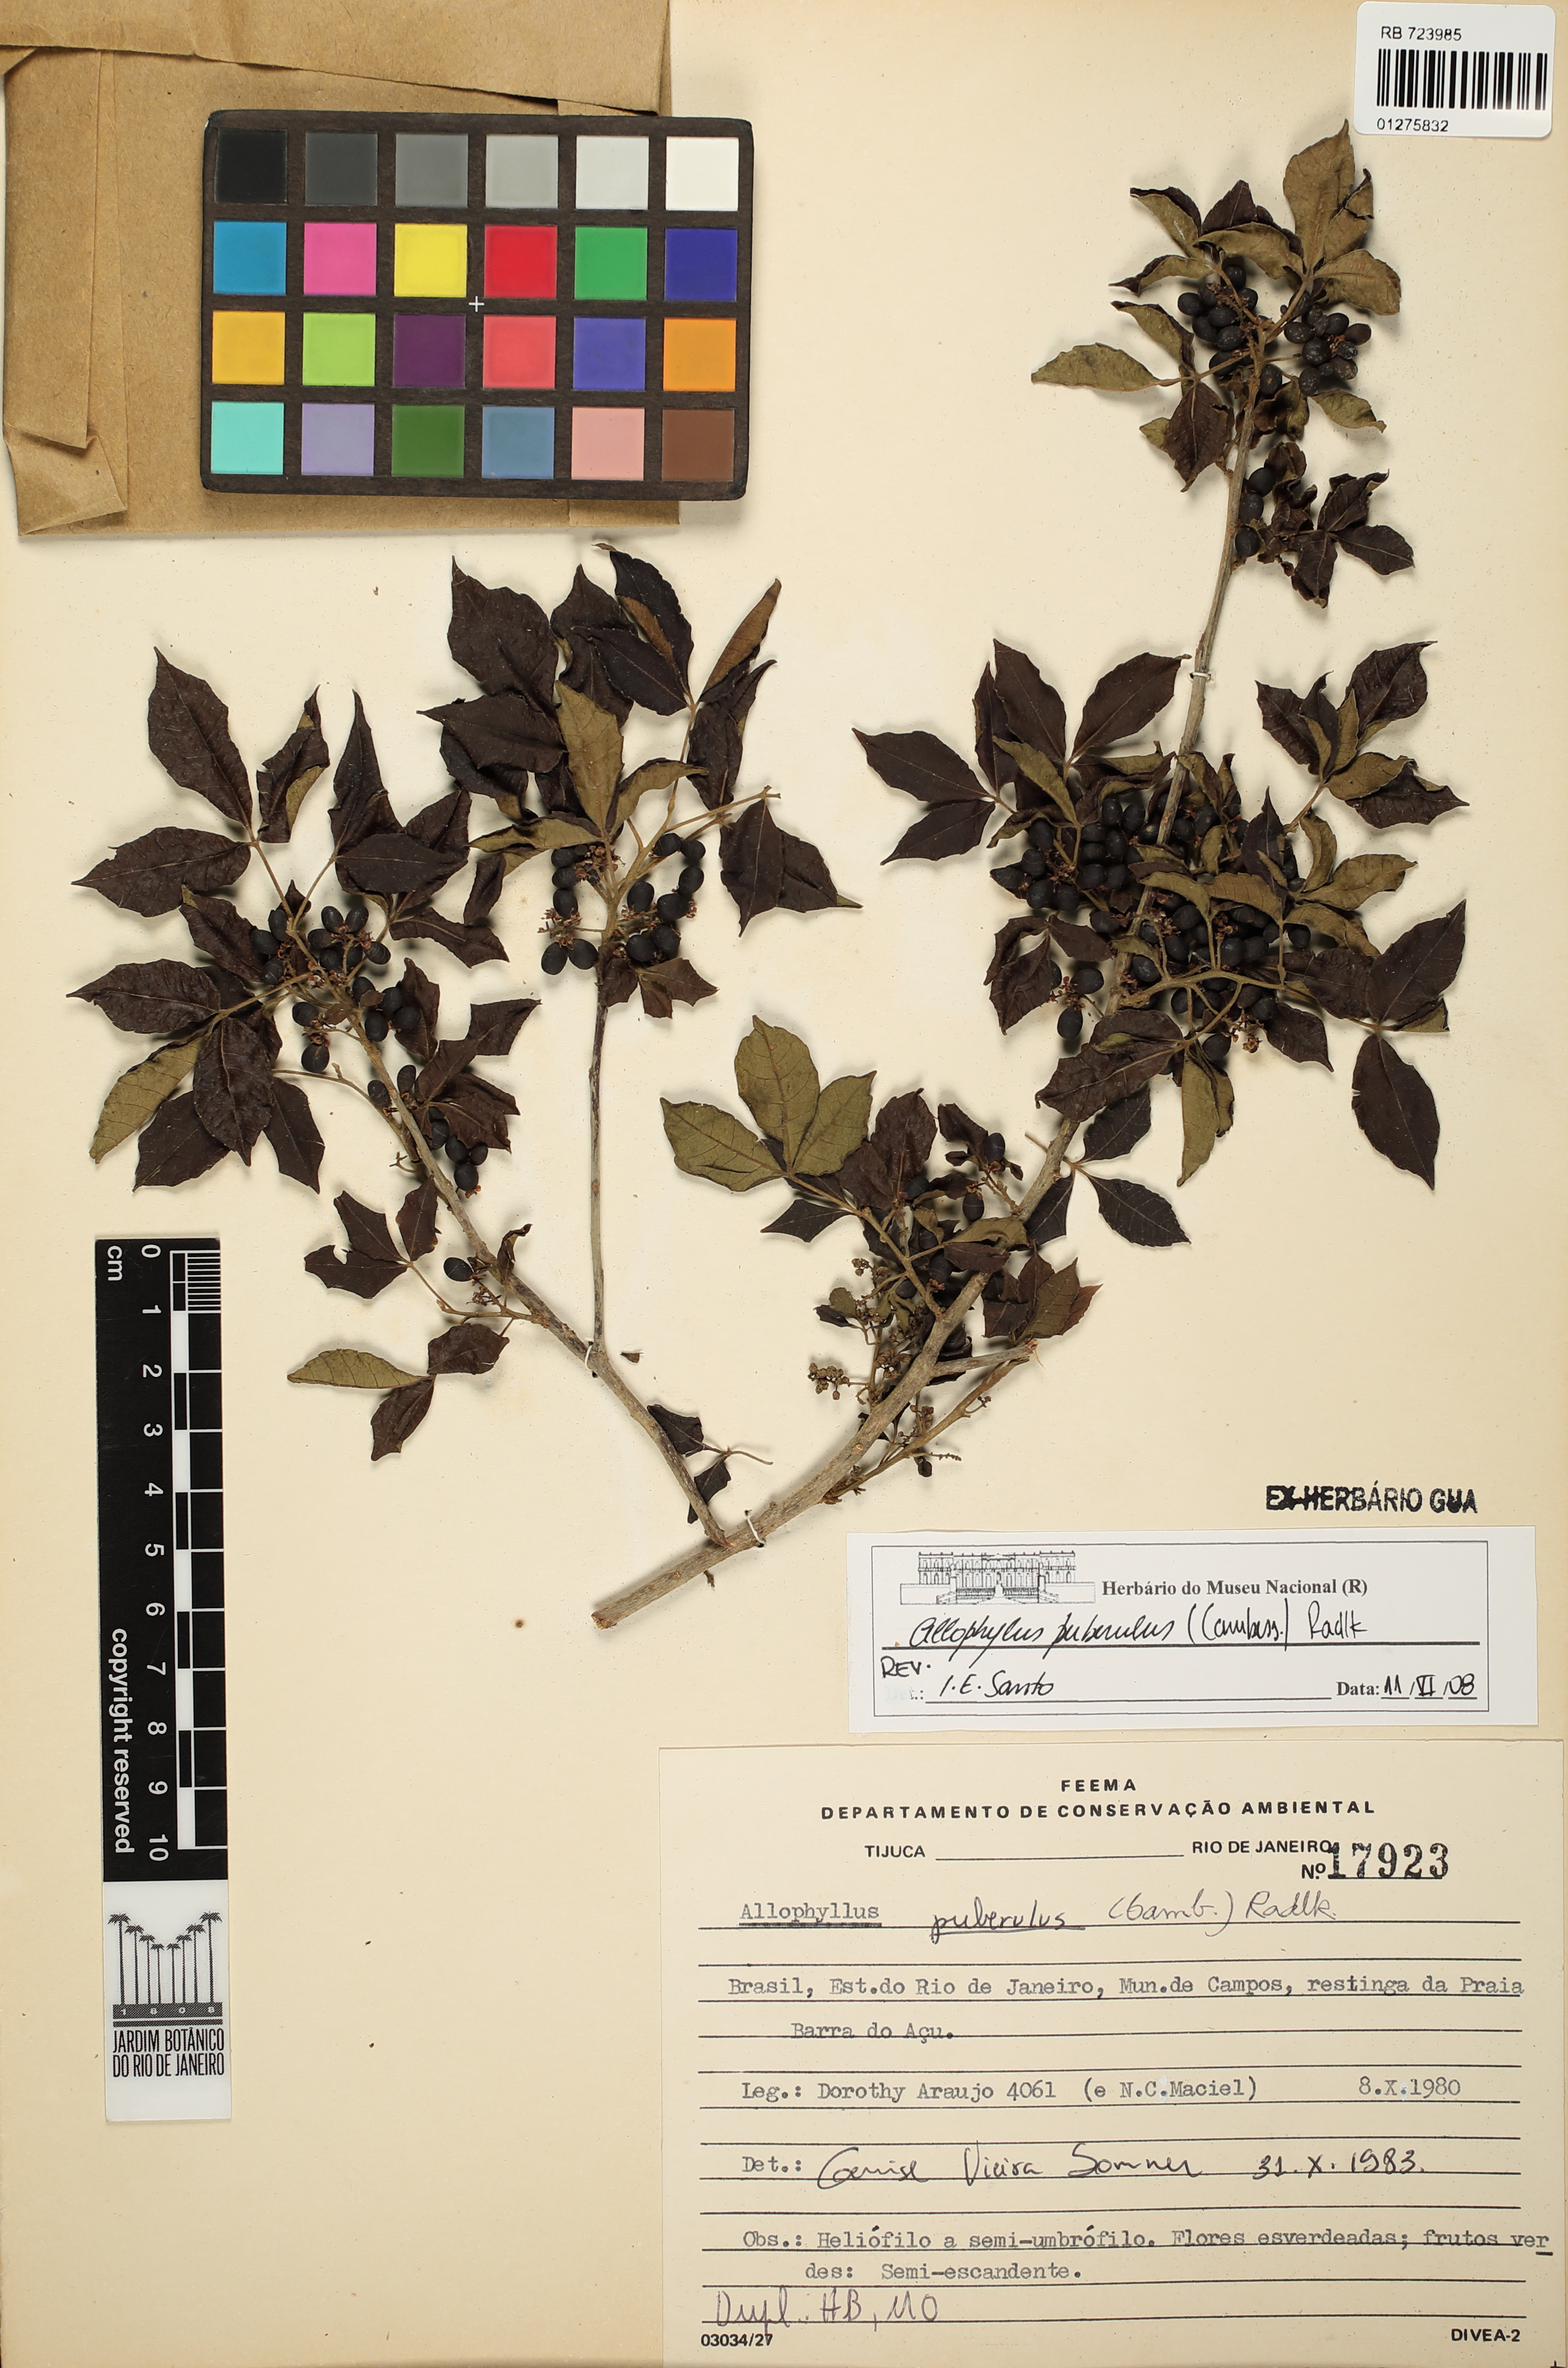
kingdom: Plantae
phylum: Tracheophyta
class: Magnoliopsida
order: Sapindales
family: Sapindaceae
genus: Allophylus
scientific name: Allophylus puberulus
